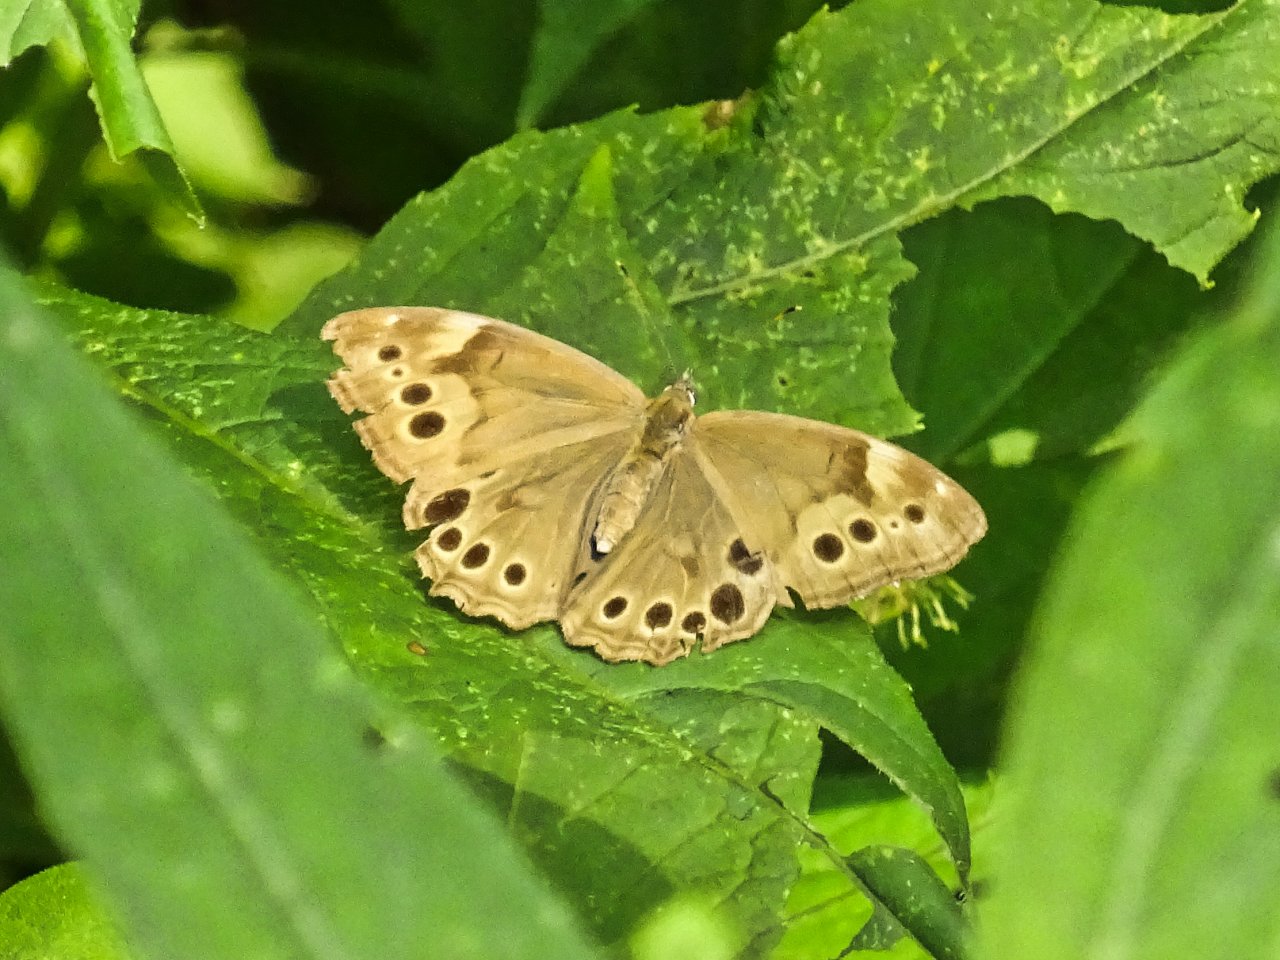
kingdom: Animalia
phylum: Arthropoda
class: Insecta
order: Lepidoptera
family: Nymphalidae
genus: Lethe
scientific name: Lethe anthedon
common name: Northern Pearly-Eye
